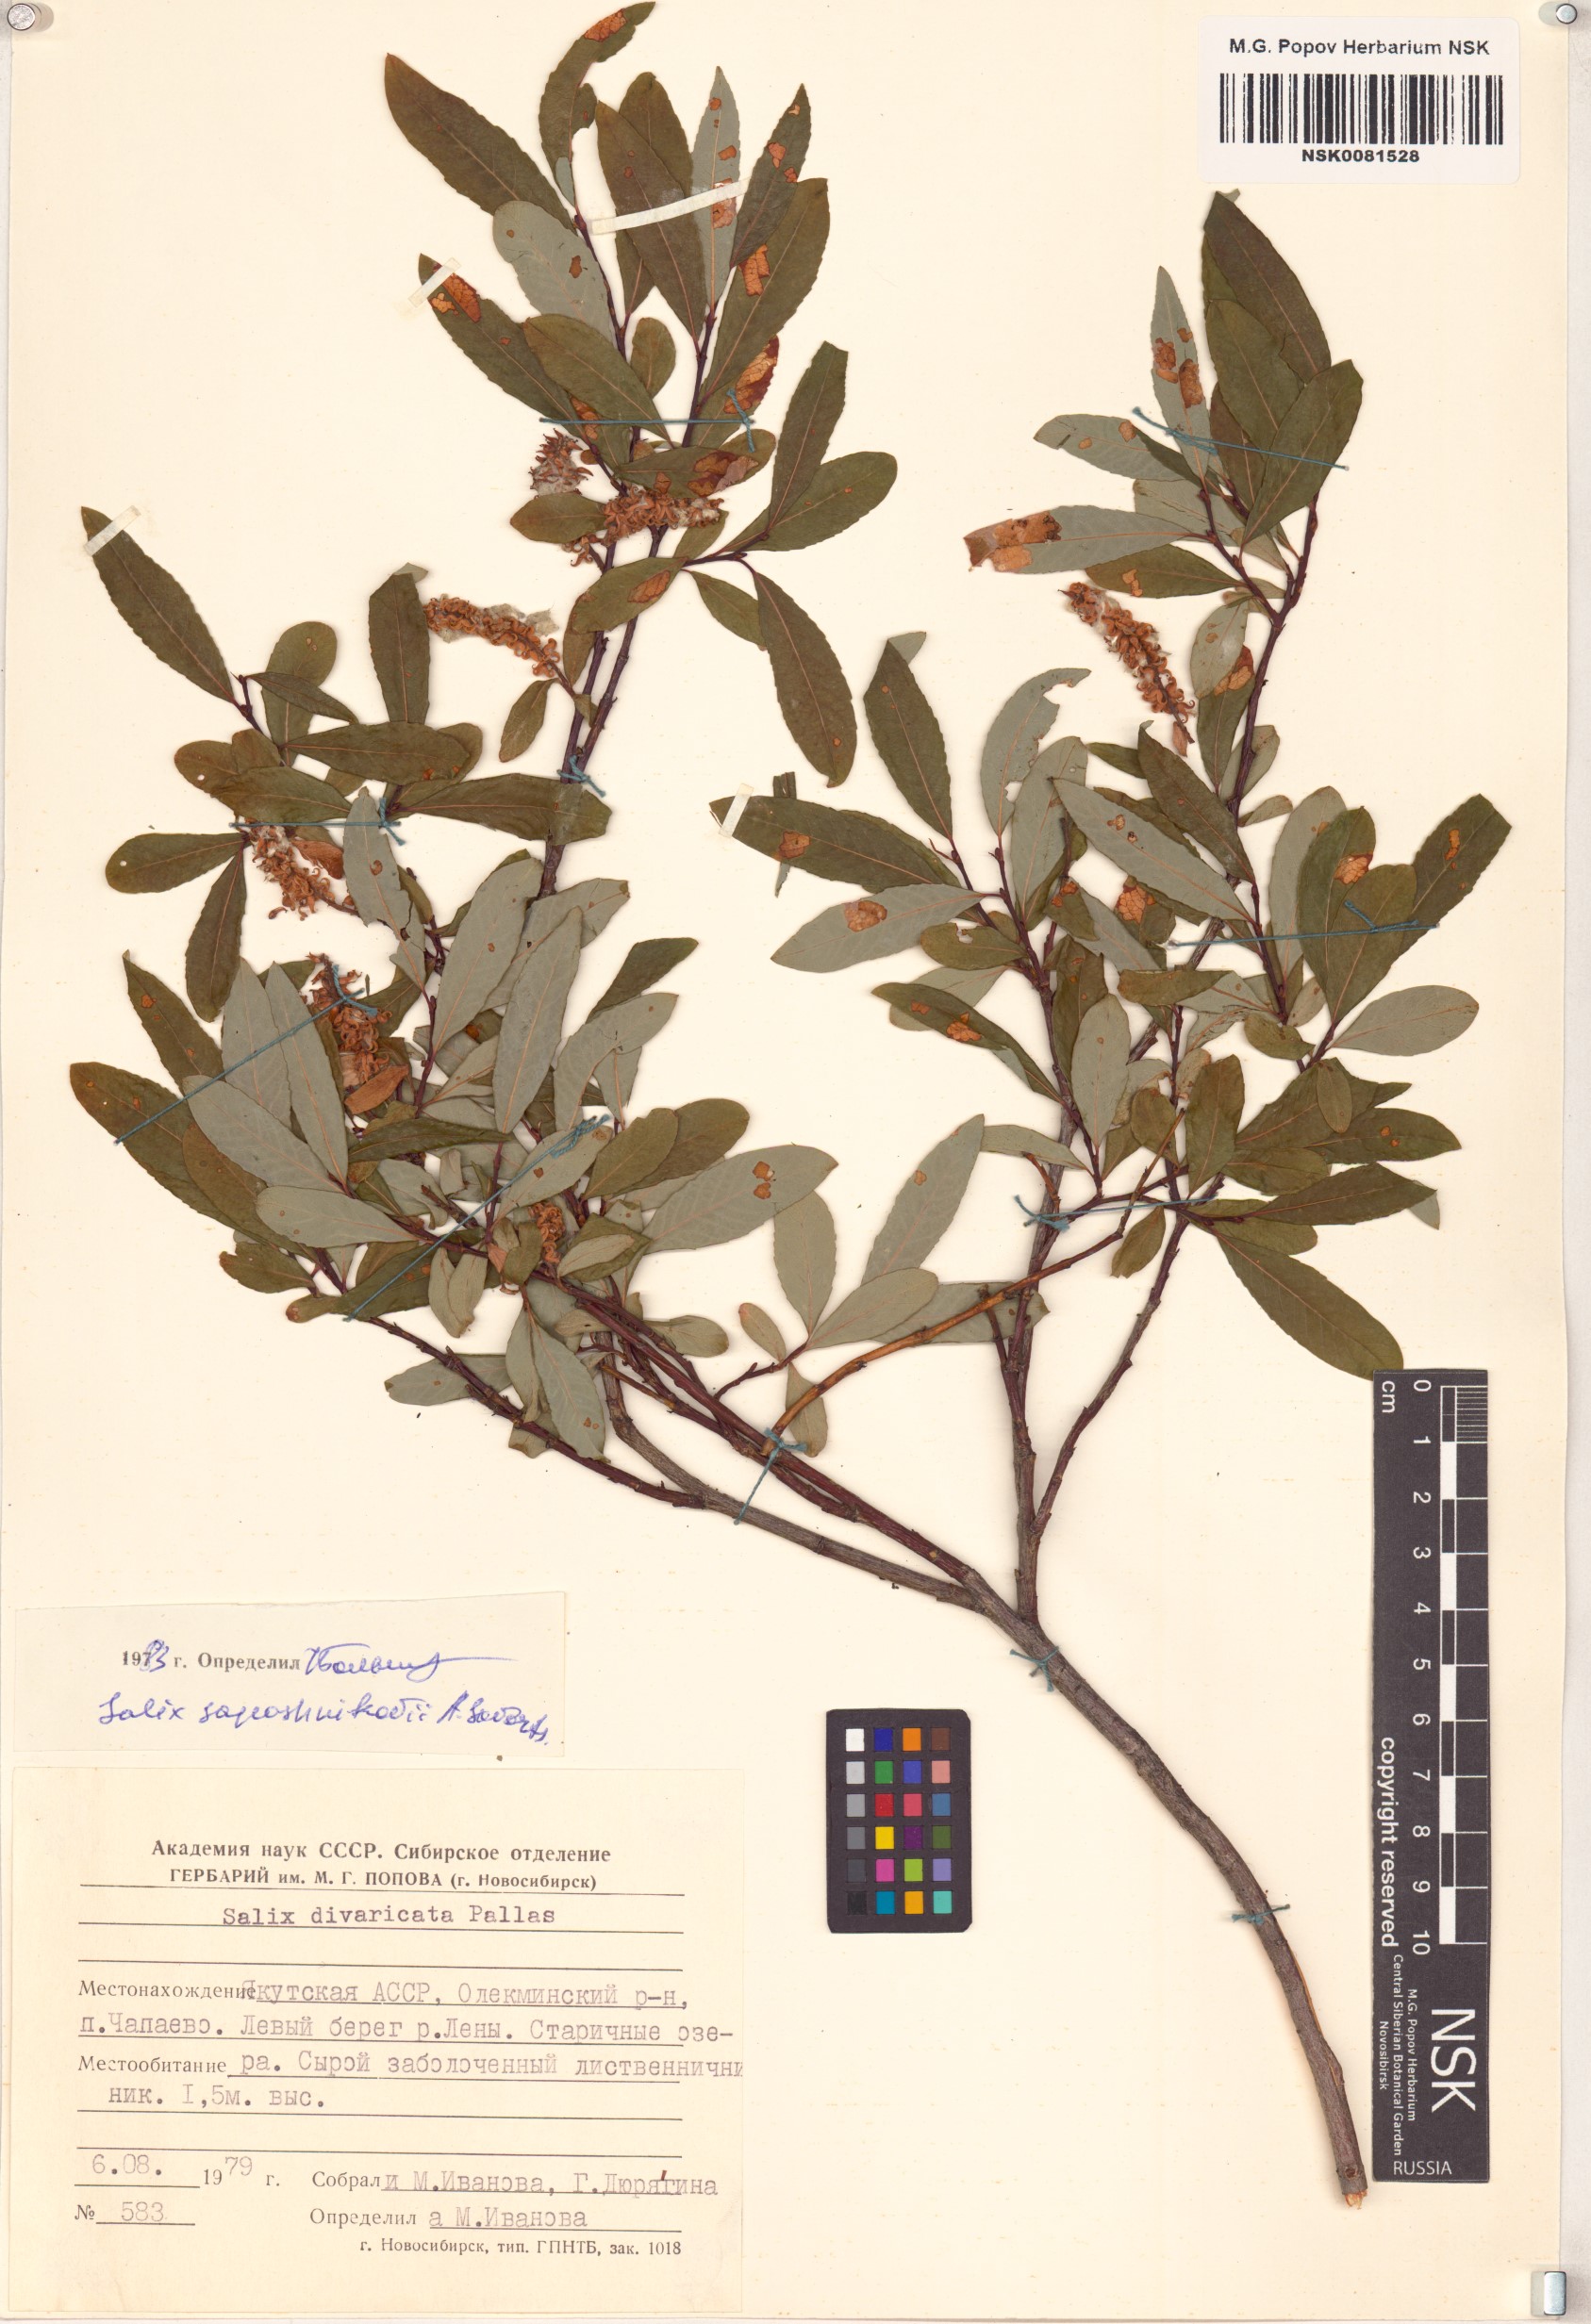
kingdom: Plantae
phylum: Tracheophyta
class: Magnoliopsida
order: Malpighiales
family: Salicaceae
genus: Salix
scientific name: Salix saposhnikovii
